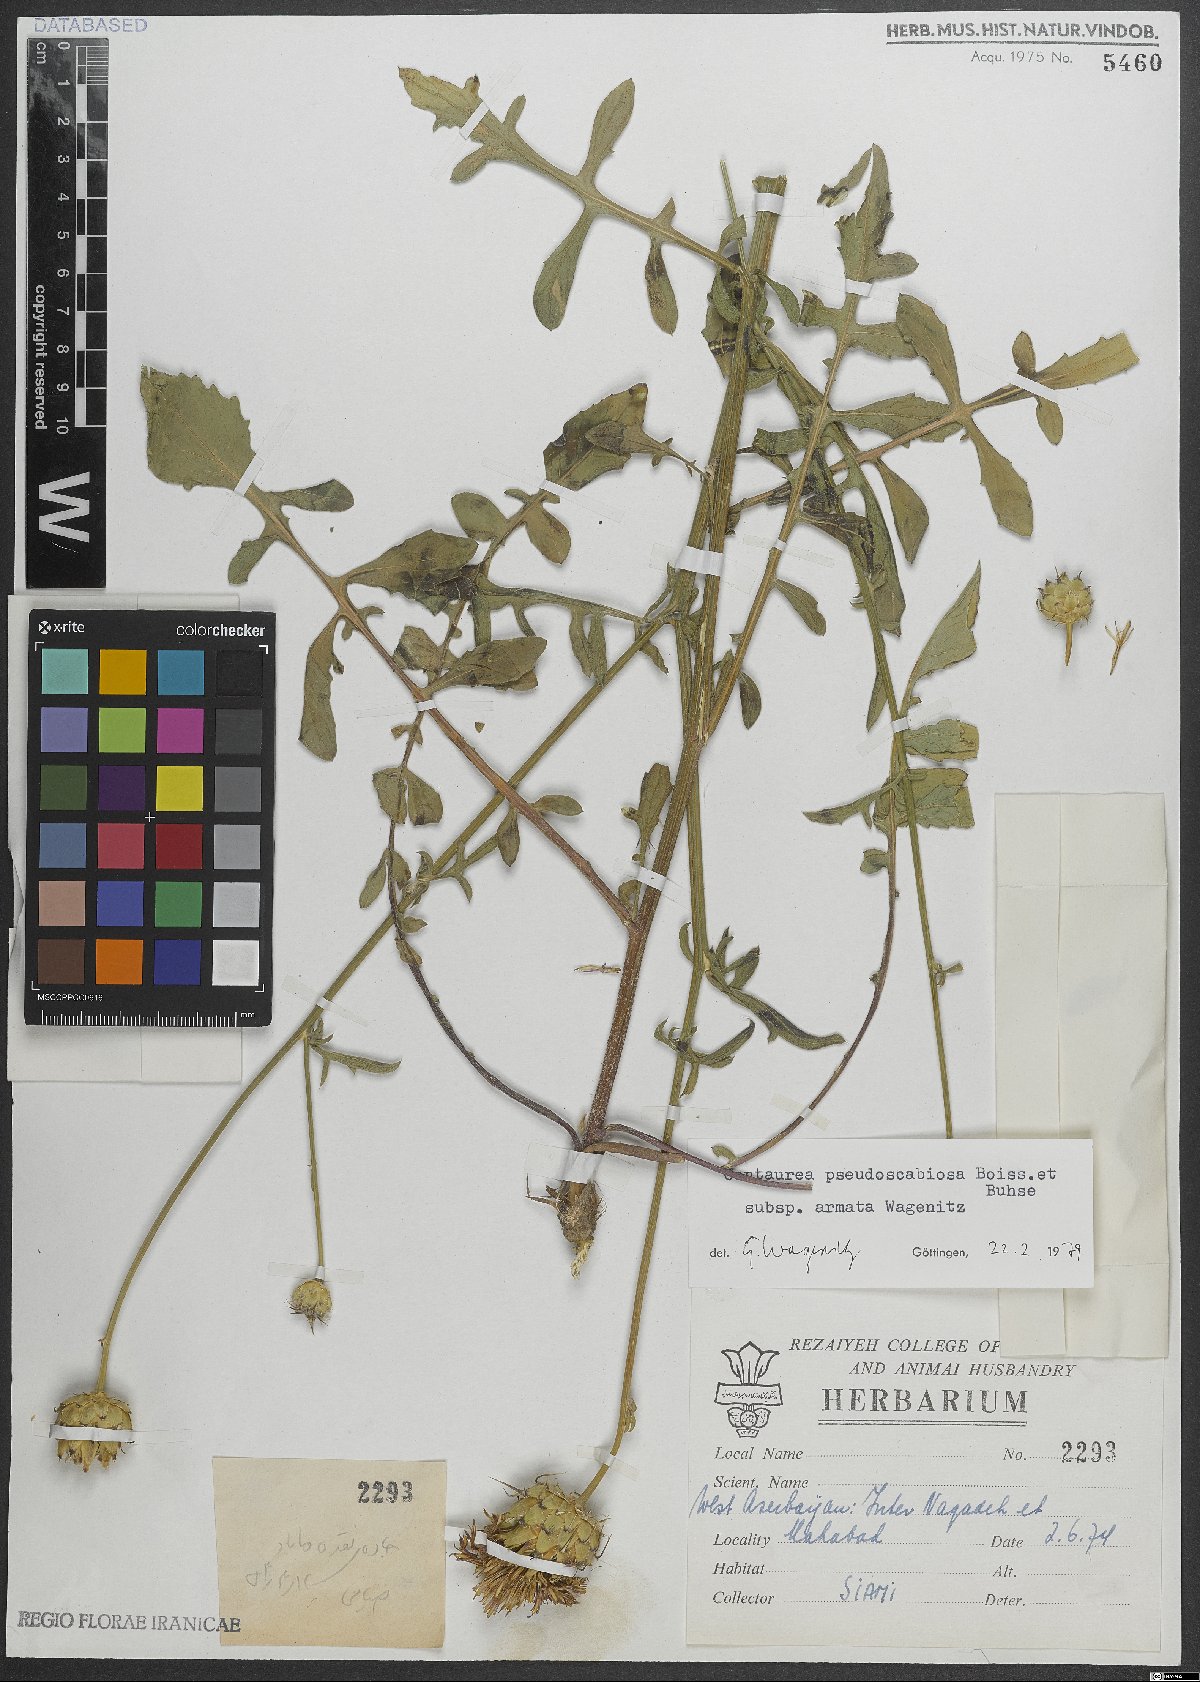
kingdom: Plantae
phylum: Tracheophyta
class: Magnoliopsida
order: Asterales
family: Asteraceae
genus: Centaurea
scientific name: Centaurea pseudoscabiosa
